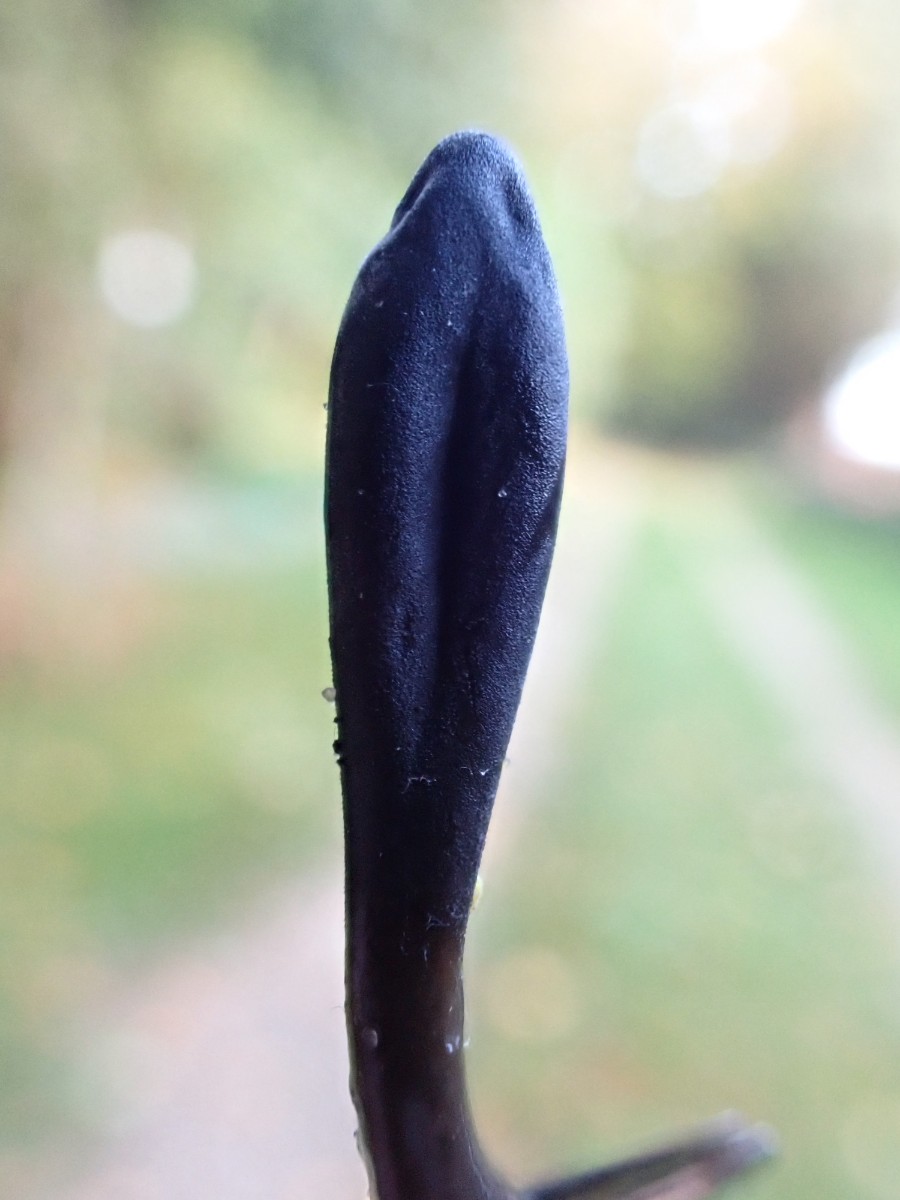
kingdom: Fungi
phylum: Ascomycota
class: Geoglossomycetes
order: Geoglossales
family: Geoglossaceae
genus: Geoglossum
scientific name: Geoglossum
